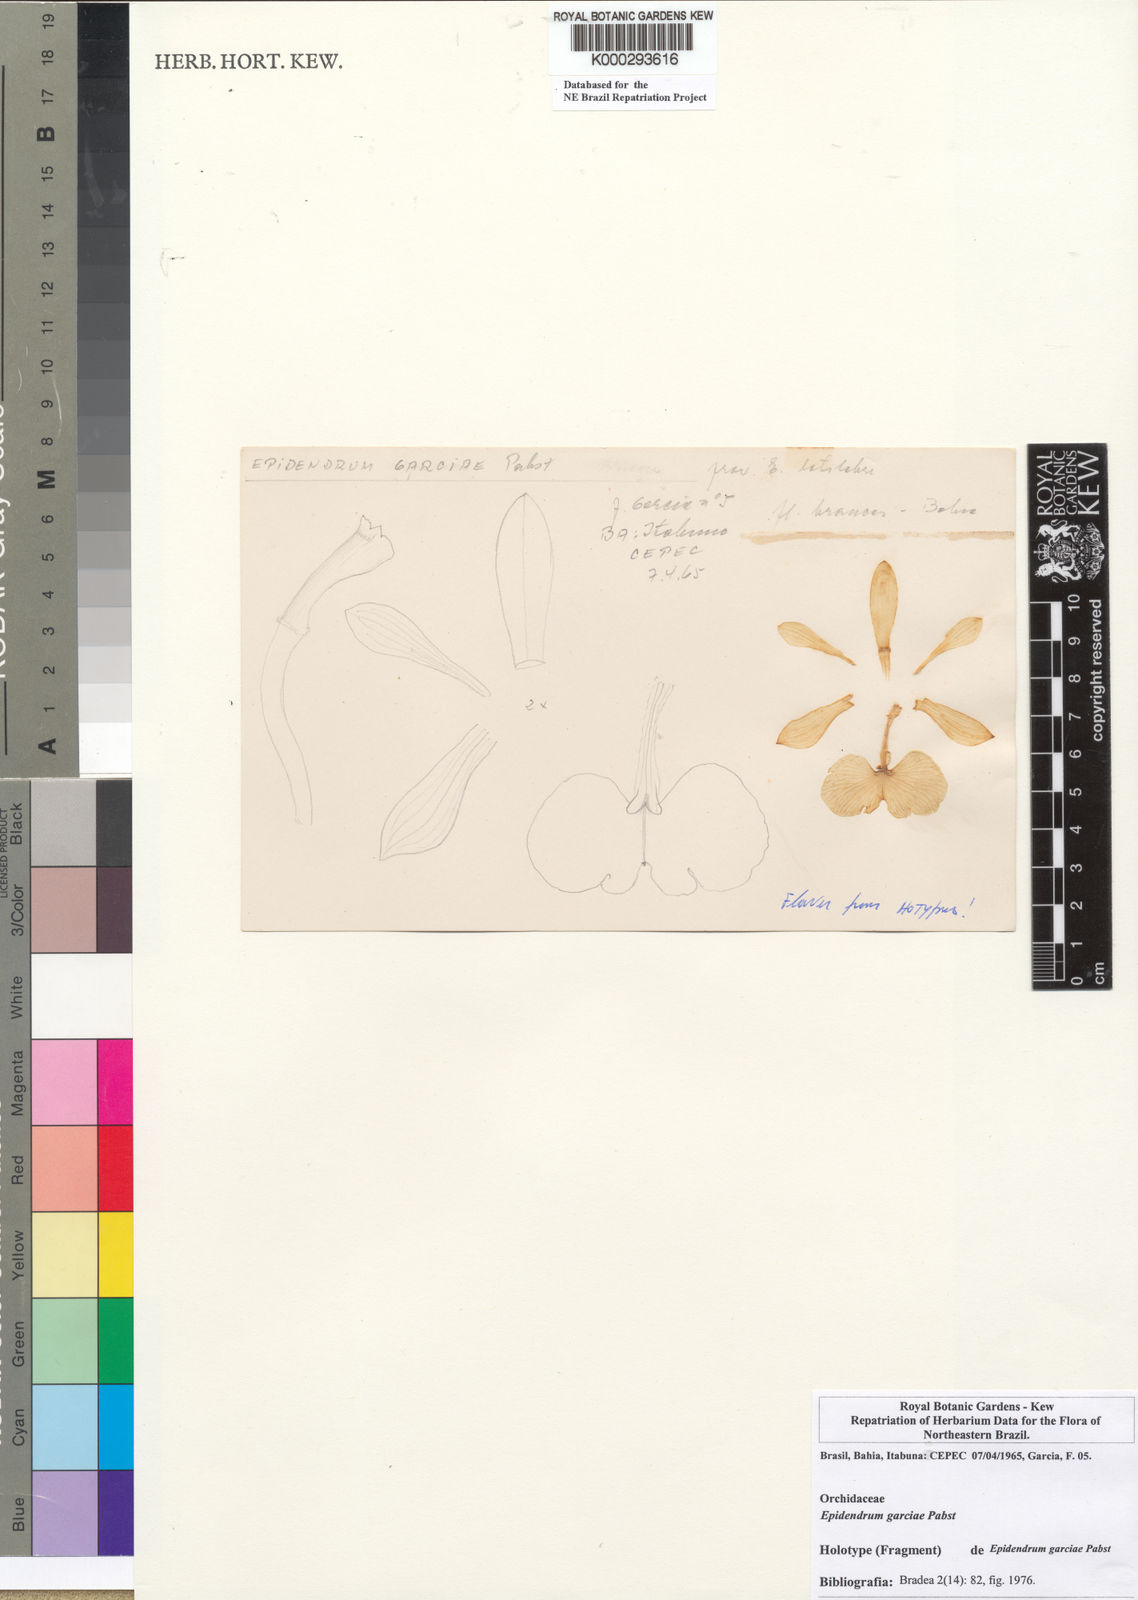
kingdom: Plantae
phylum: Tracheophyta
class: Liliopsida
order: Asparagales
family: Orchidaceae
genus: Epidendrum
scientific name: Epidendrum garciae
